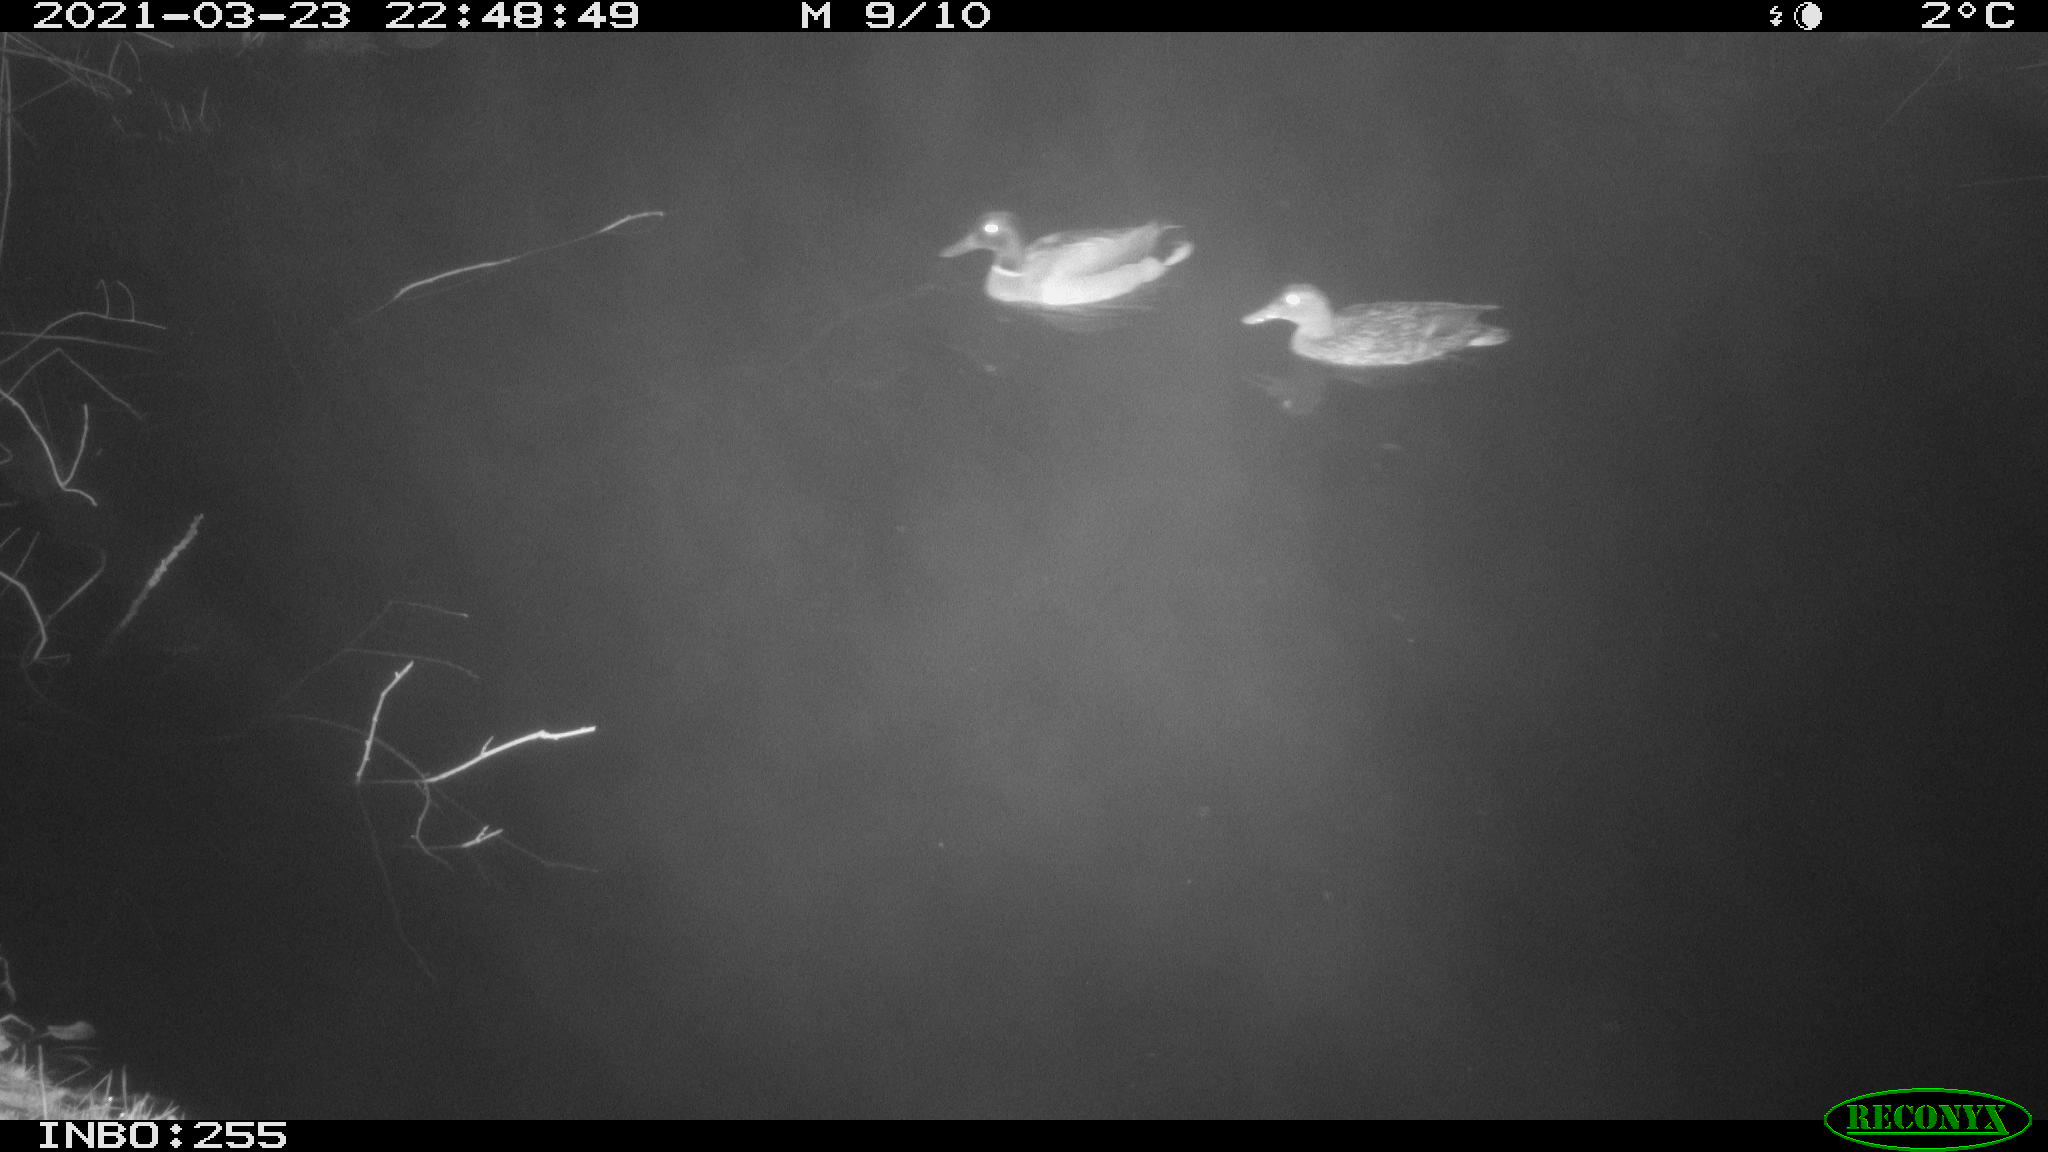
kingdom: Animalia
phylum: Chordata
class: Aves
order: Anseriformes
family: Anatidae
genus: Anas
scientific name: Anas platyrhynchos
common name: Mallard
